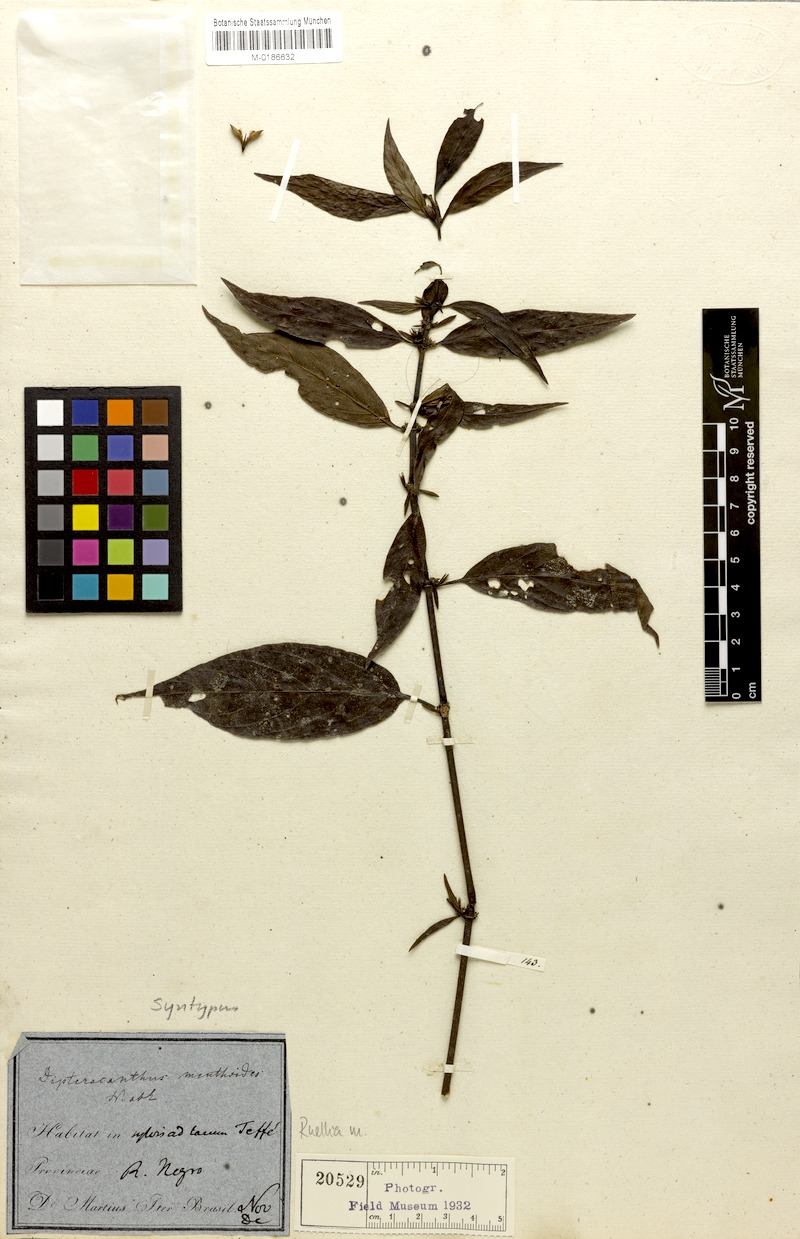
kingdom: Plantae
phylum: Tracheophyta
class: Magnoliopsida
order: Lamiales
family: Acanthaceae
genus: Ruellia
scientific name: Ruellia menthoides
